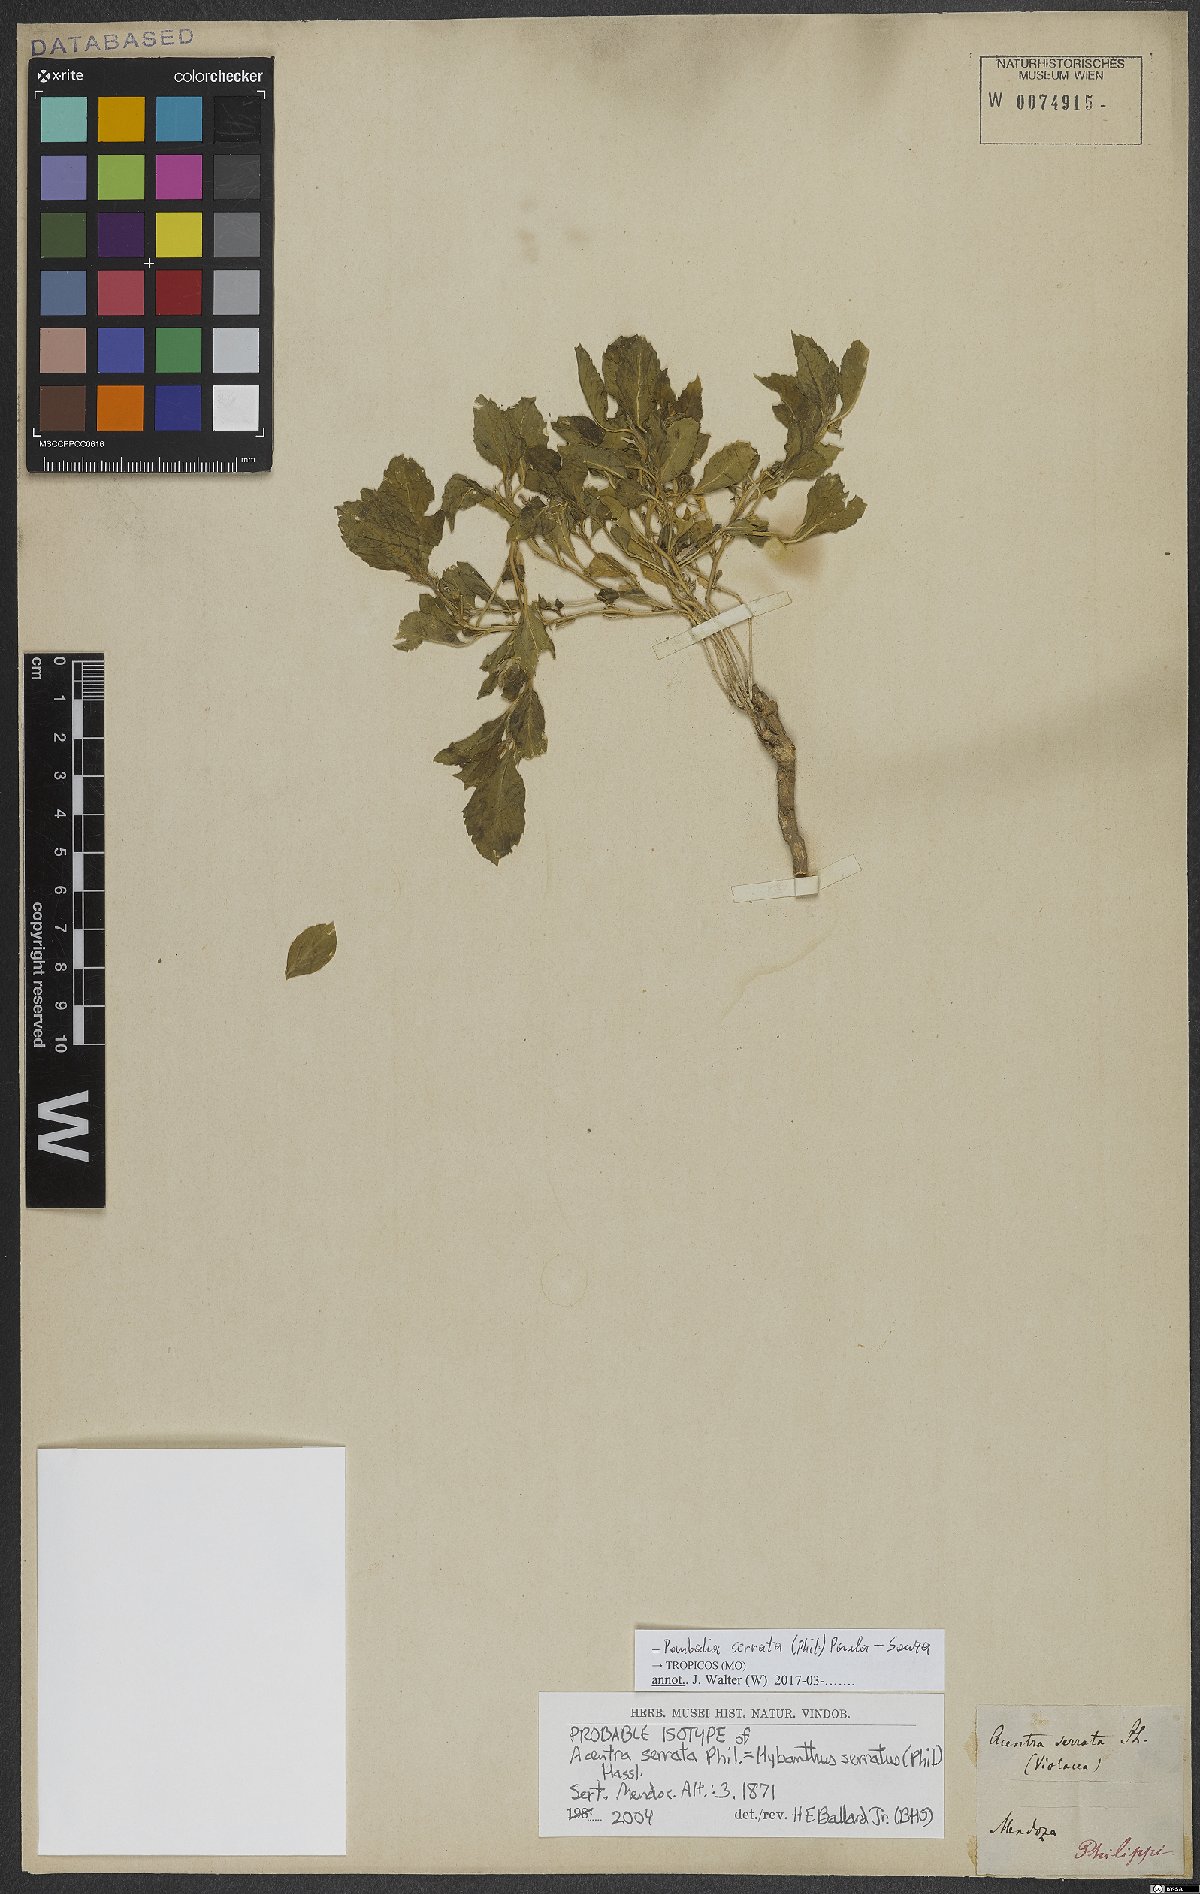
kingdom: Plantae
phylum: Tracheophyta
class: Magnoliopsida
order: Malpighiales
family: Violaceae
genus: Pombalia
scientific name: Pombalia serrata
